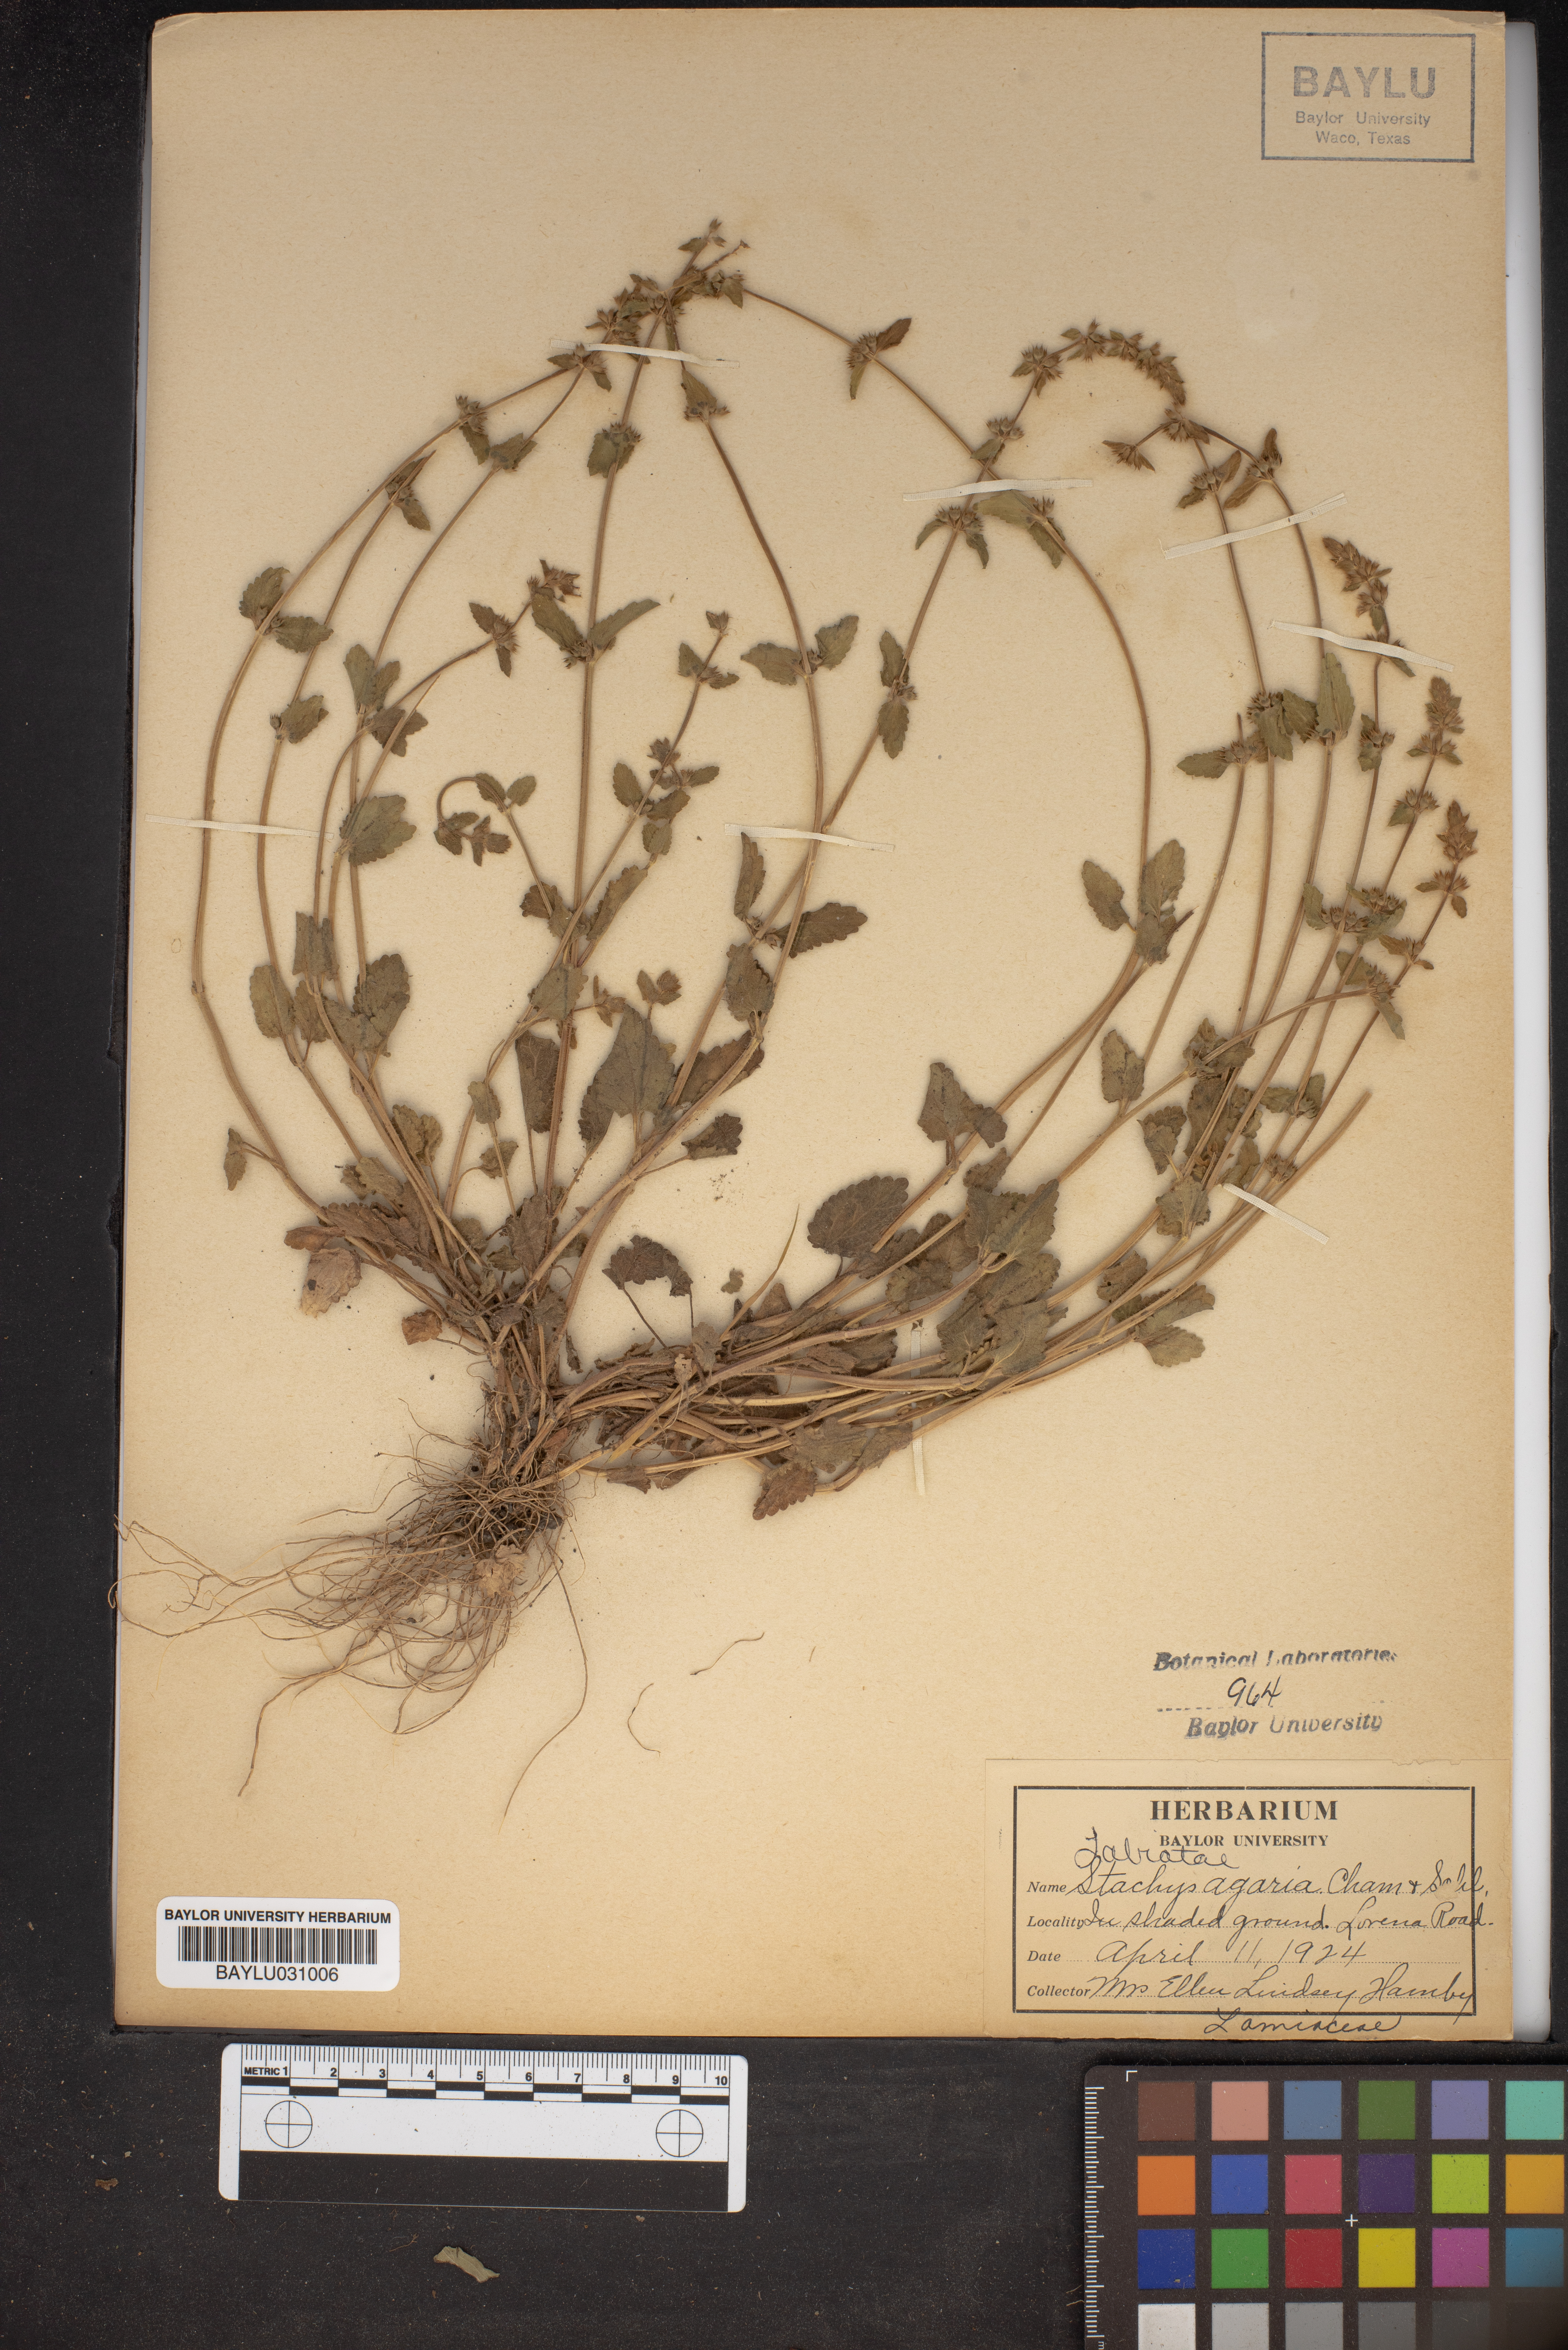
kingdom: Plantae
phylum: Tracheophyta
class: Magnoliopsida
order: Lamiales
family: Lamiaceae
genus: Stachys
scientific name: Stachys agraria
